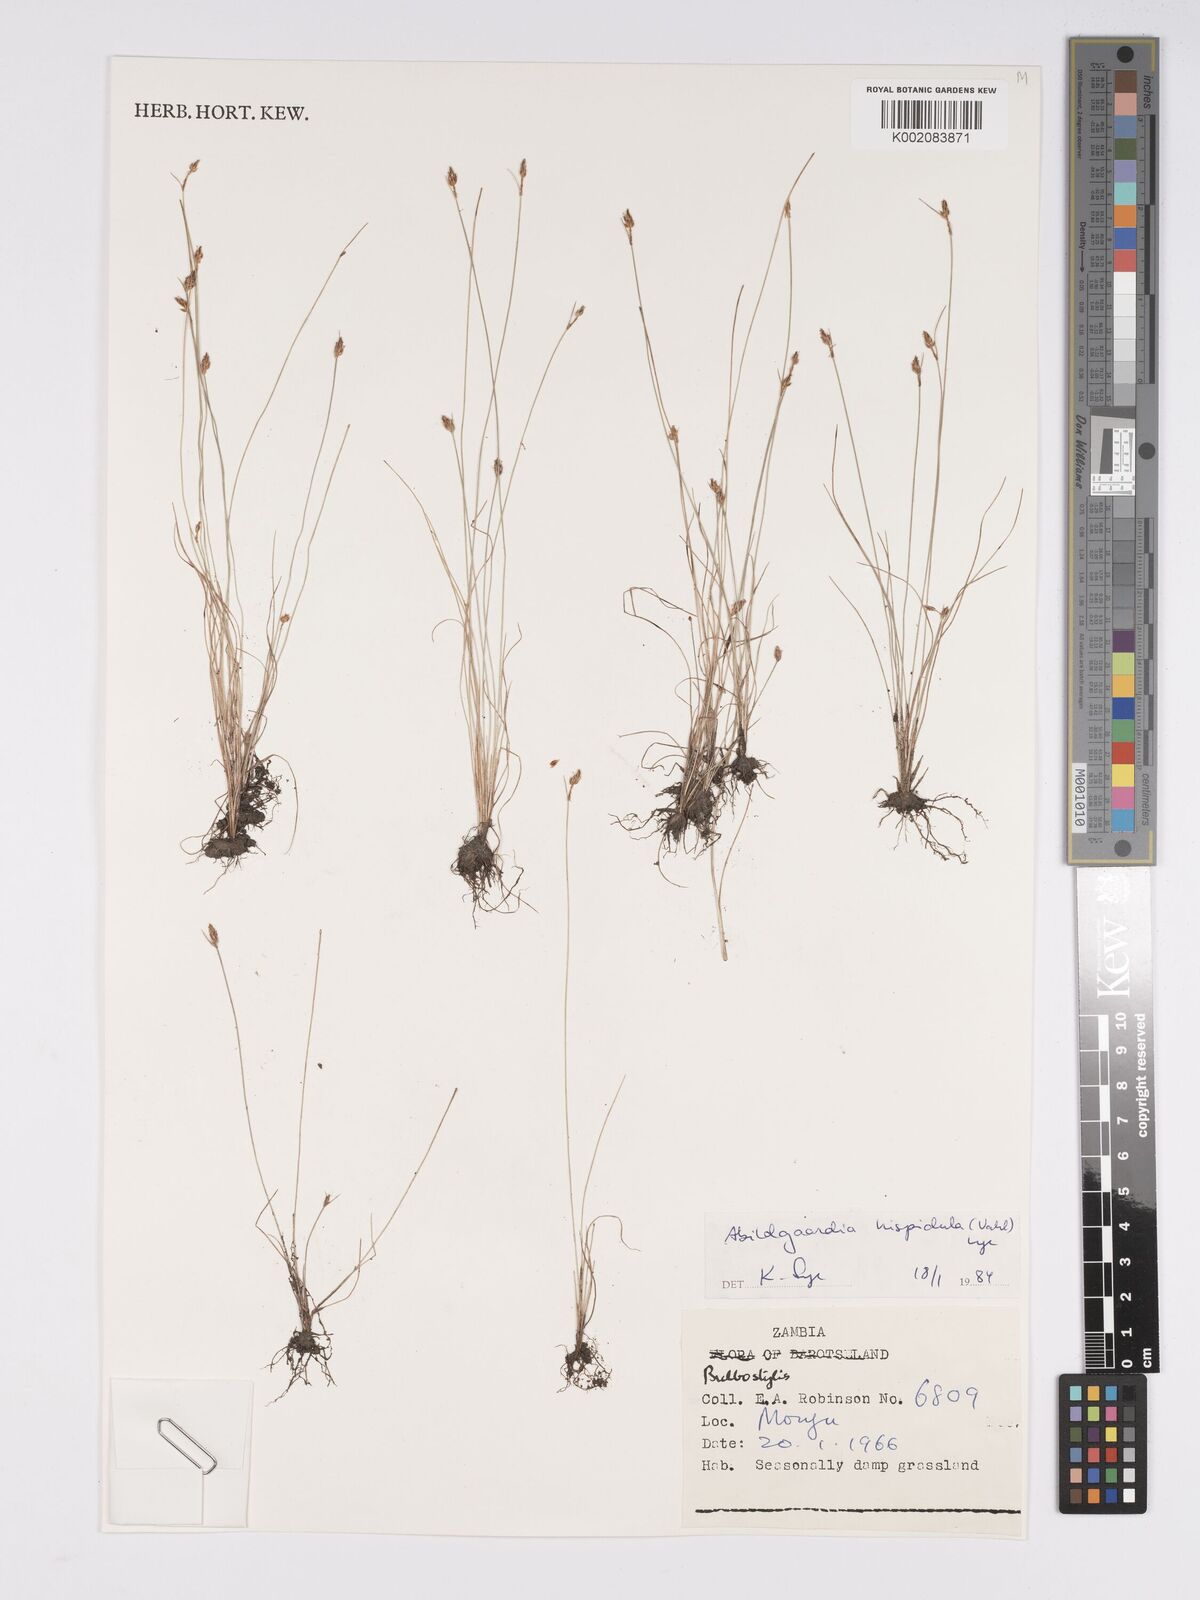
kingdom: Plantae
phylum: Tracheophyta
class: Liliopsida
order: Poales
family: Cyperaceae
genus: Bulbostylis
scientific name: Bulbostylis hispidula
